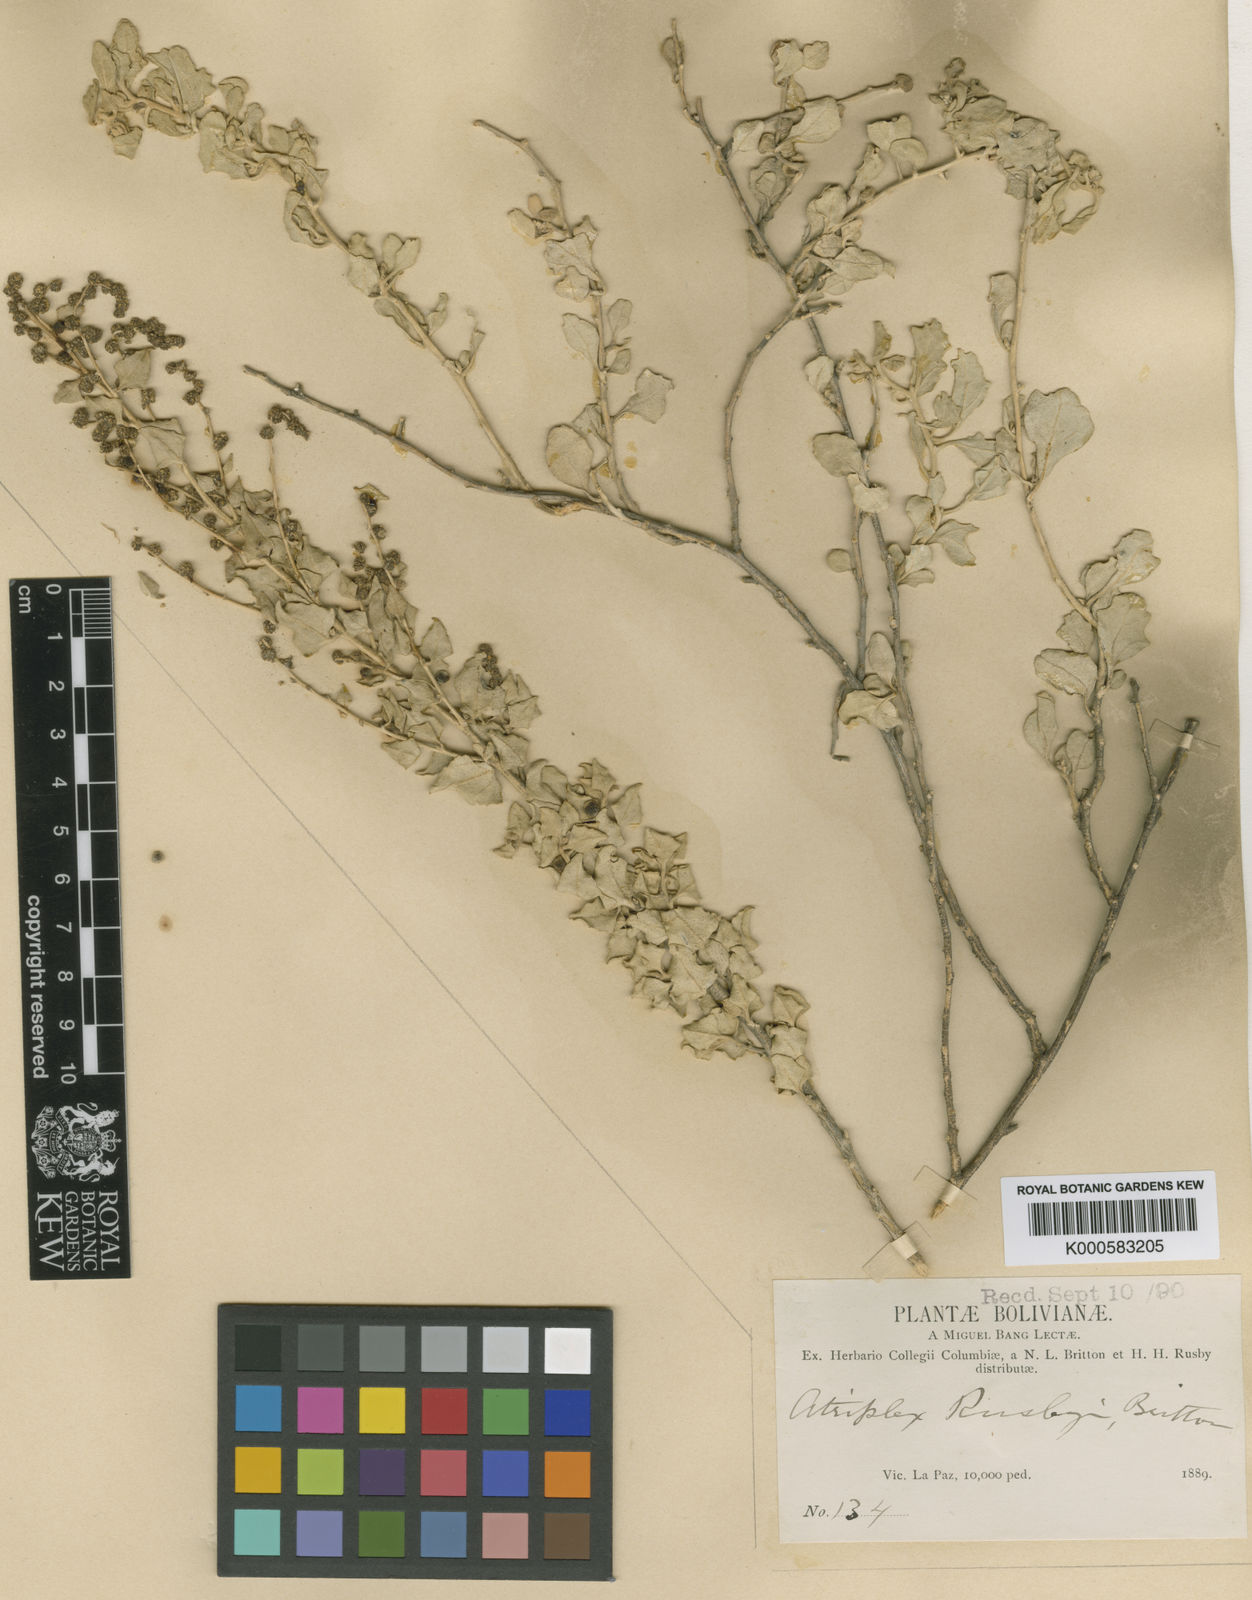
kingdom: Plantae
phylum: Tracheophyta
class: Magnoliopsida
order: Caryophyllales
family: Amaranthaceae
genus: Atriplex
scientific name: Atriplex
